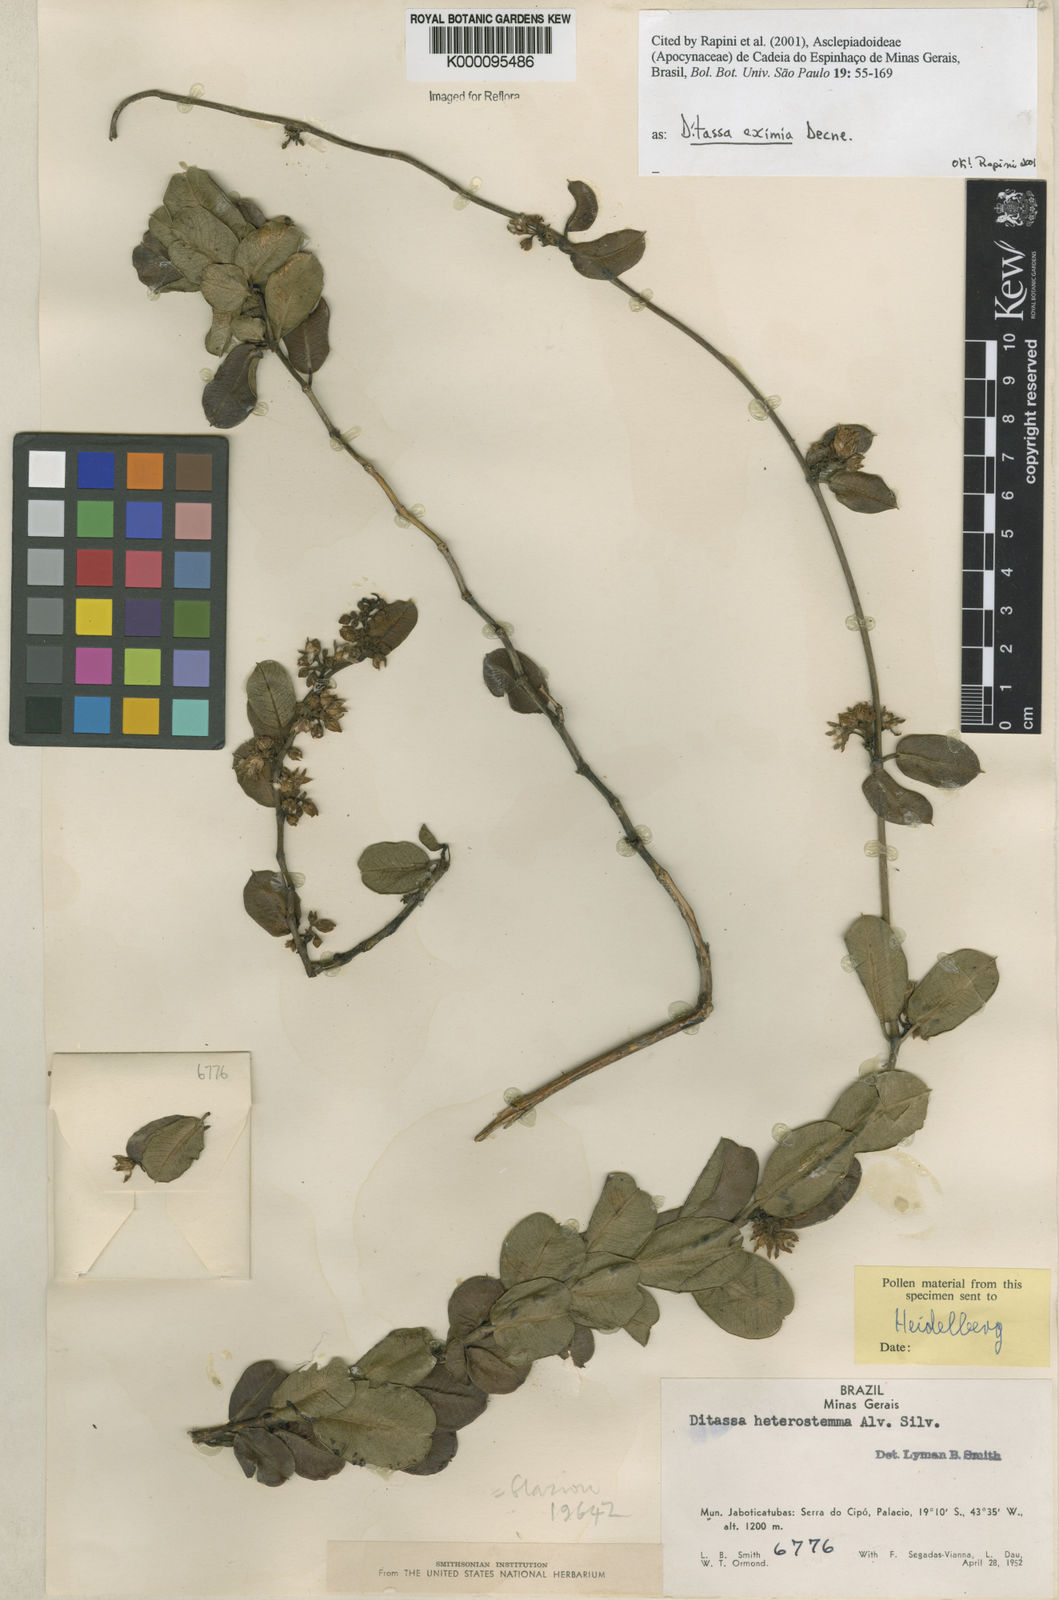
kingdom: Plantae
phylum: Tracheophyta
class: Magnoliopsida
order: Gentianales
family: Apocynaceae
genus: Ditassa
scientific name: Ditassa eximia
